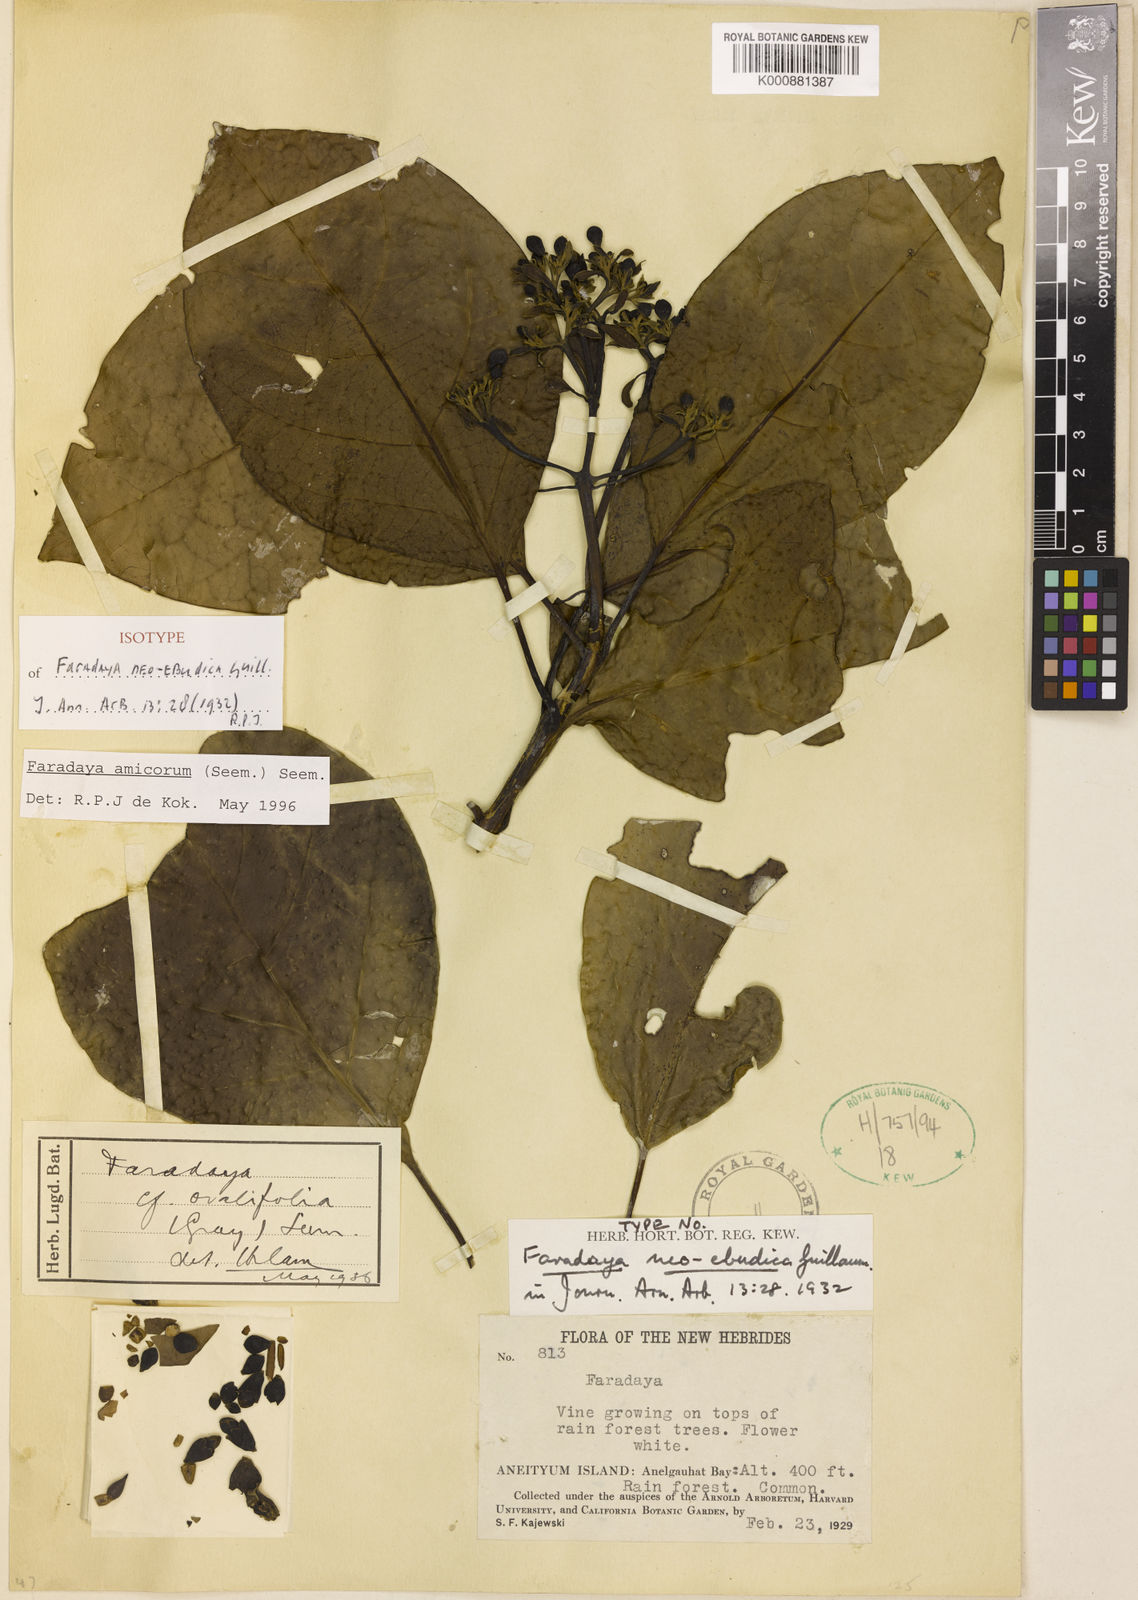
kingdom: Plantae
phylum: Tracheophyta
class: Magnoliopsida
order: Lamiales
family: Lamiaceae
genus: Oxera
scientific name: Oxera amicorum
